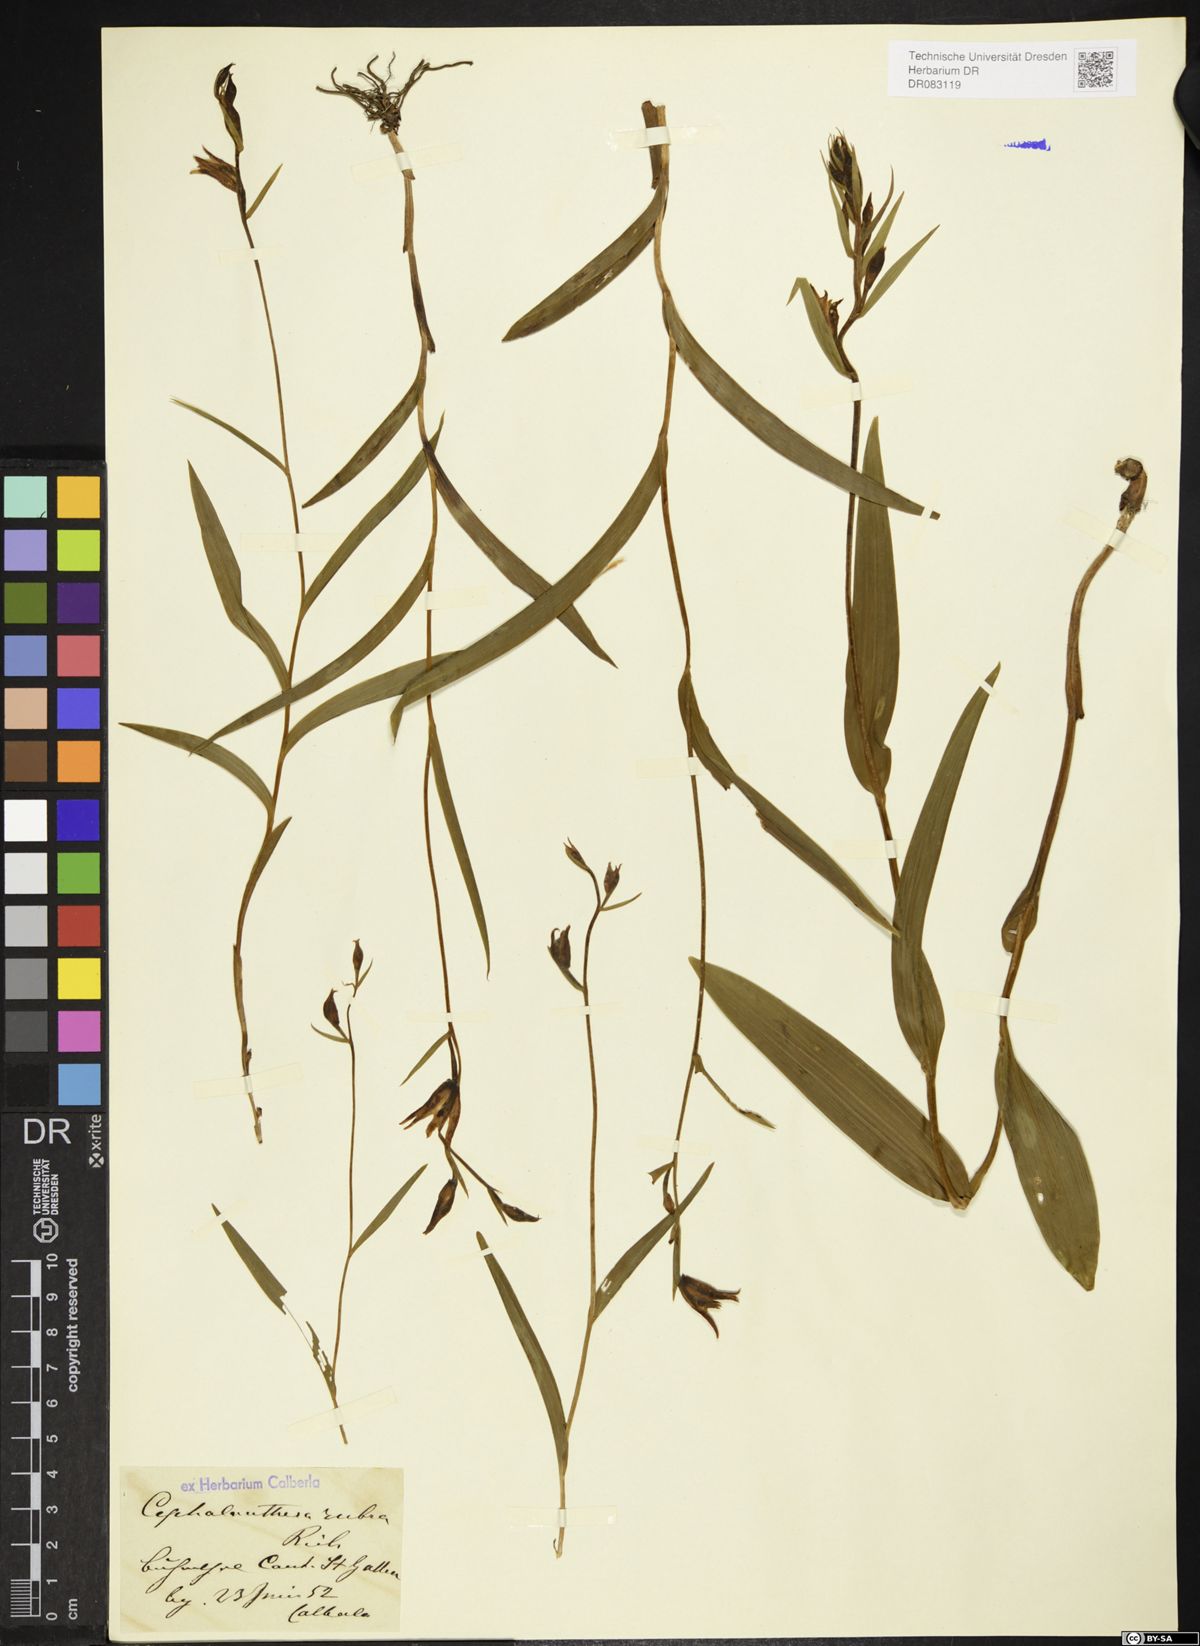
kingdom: Plantae
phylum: Tracheophyta
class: Liliopsida
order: Asparagales
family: Orchidaceae
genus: Cephalanthera
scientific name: Cephalanthera rubra
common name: Red helleborine
